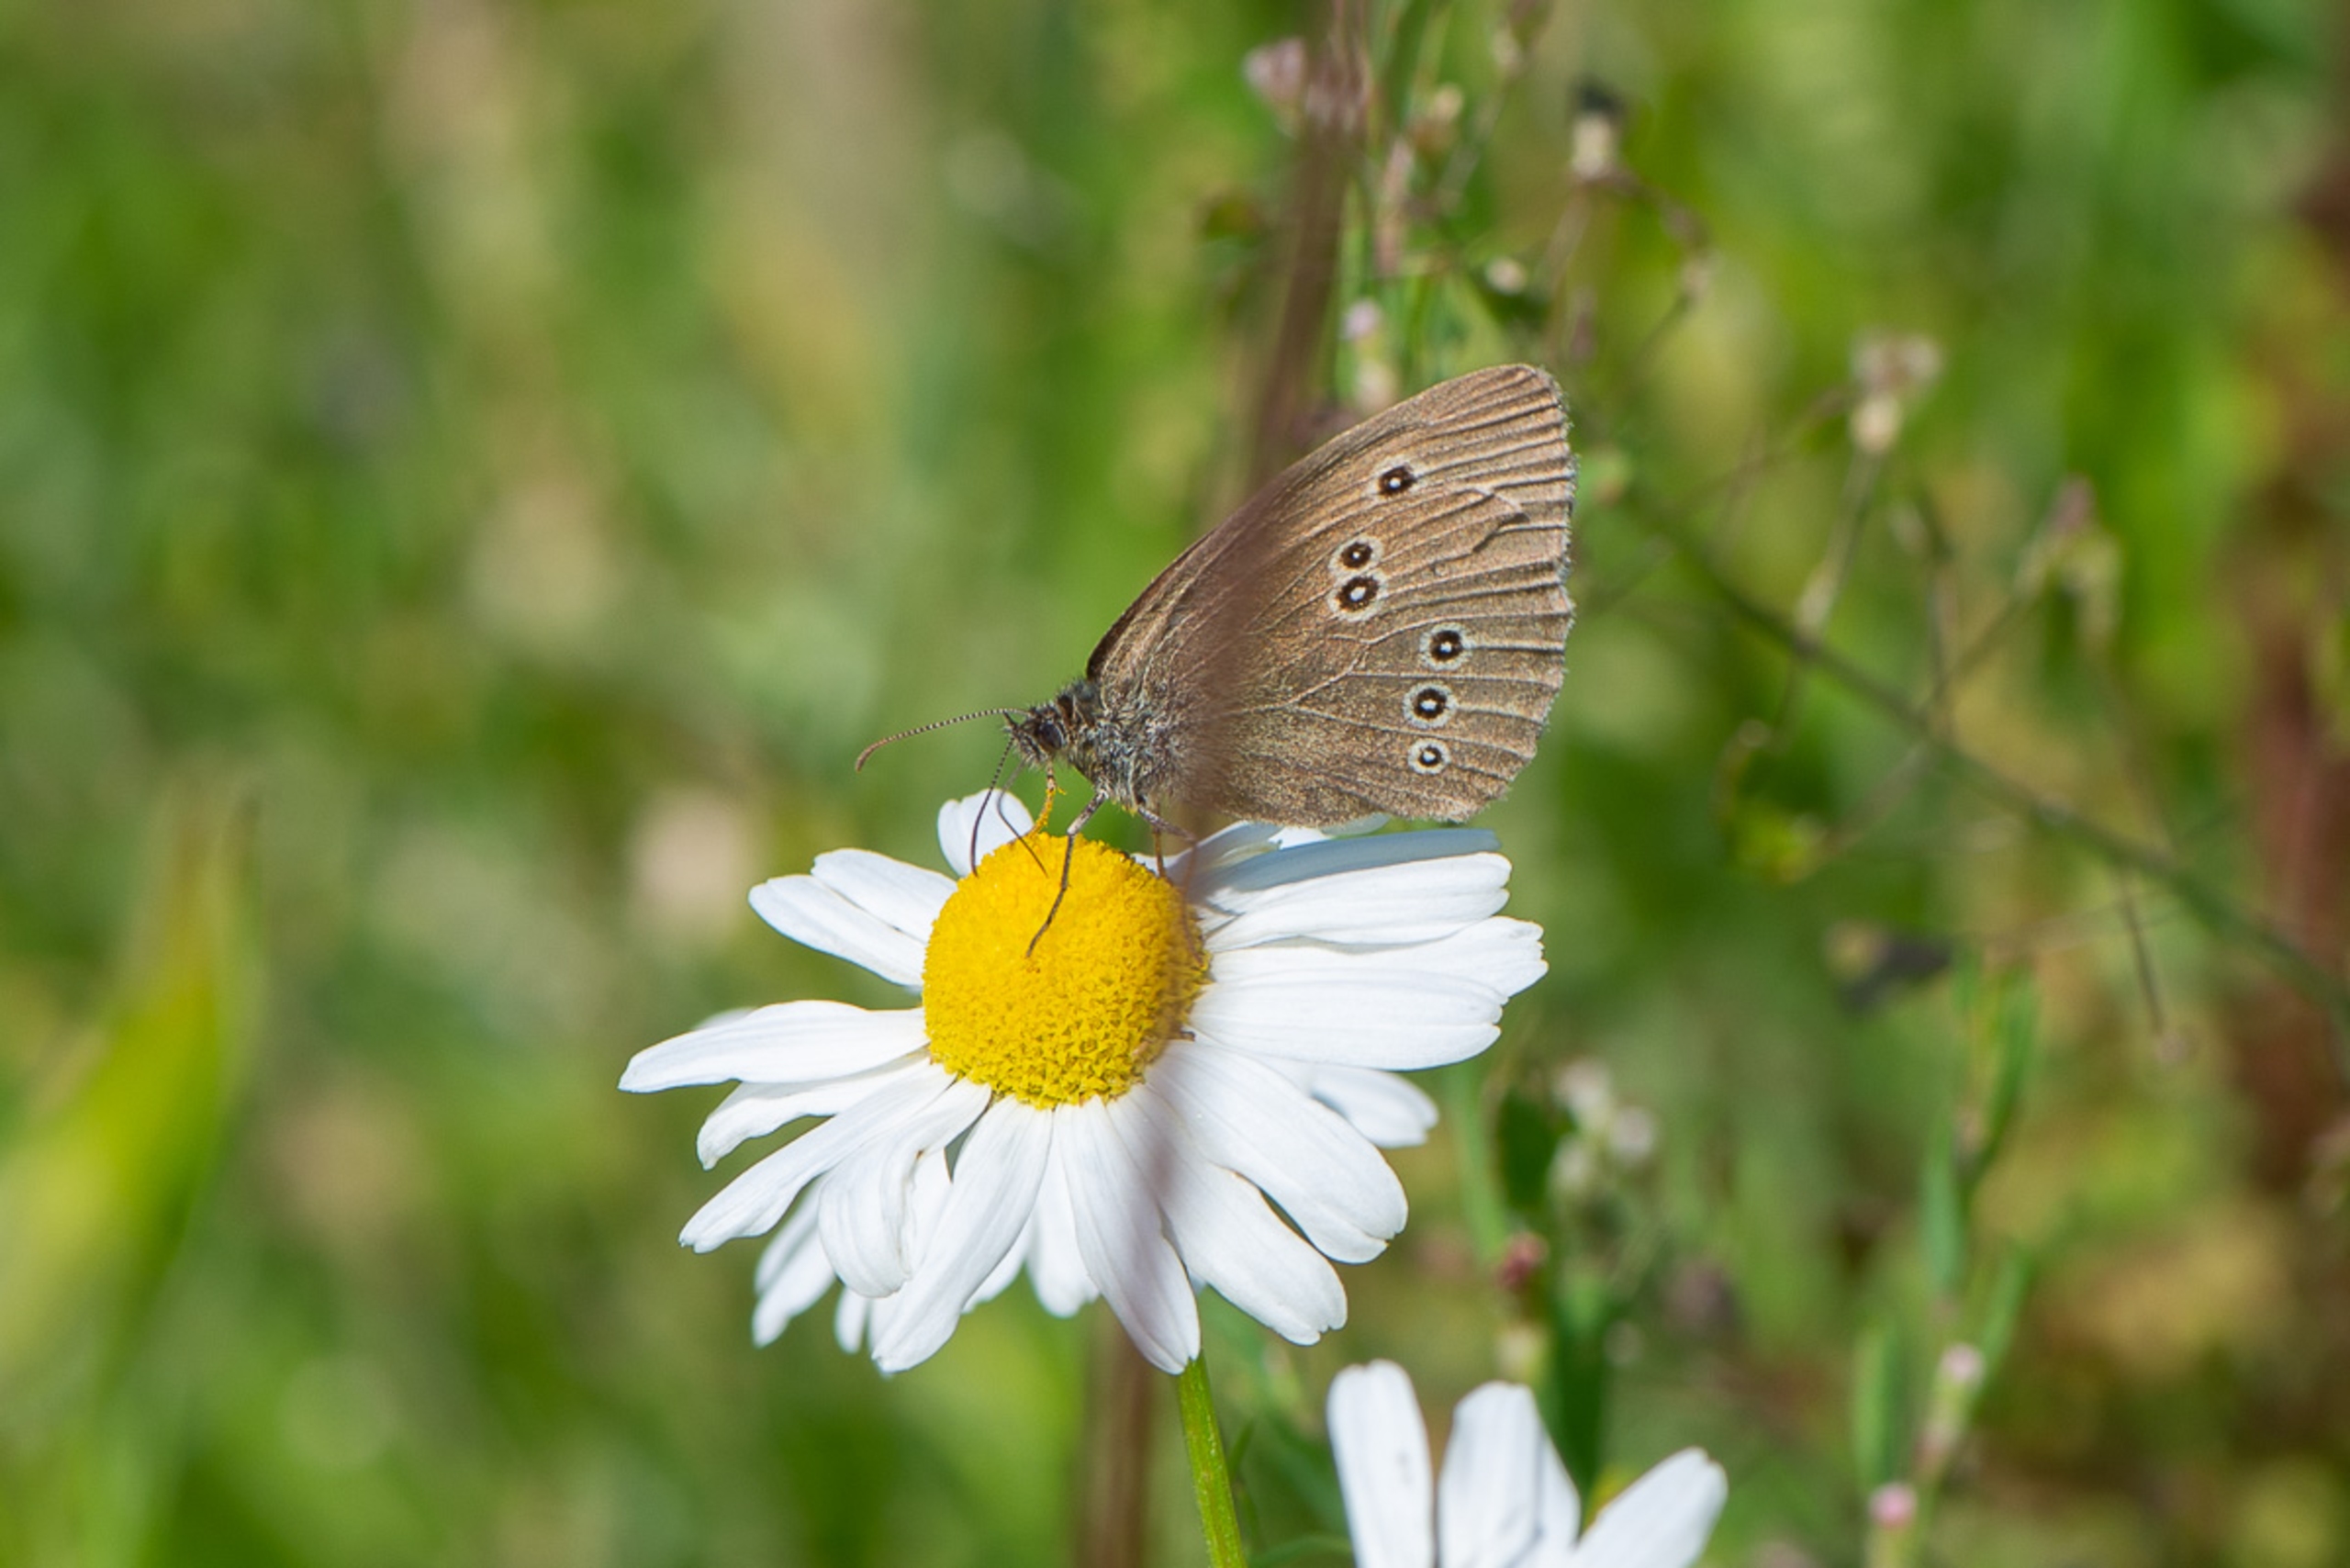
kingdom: Animalia
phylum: Arthropoda
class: Insecta
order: Lepidoptera
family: Nymphalidae
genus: Aphantopus
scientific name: Aphantopus hyperantus
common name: Engrandøje
